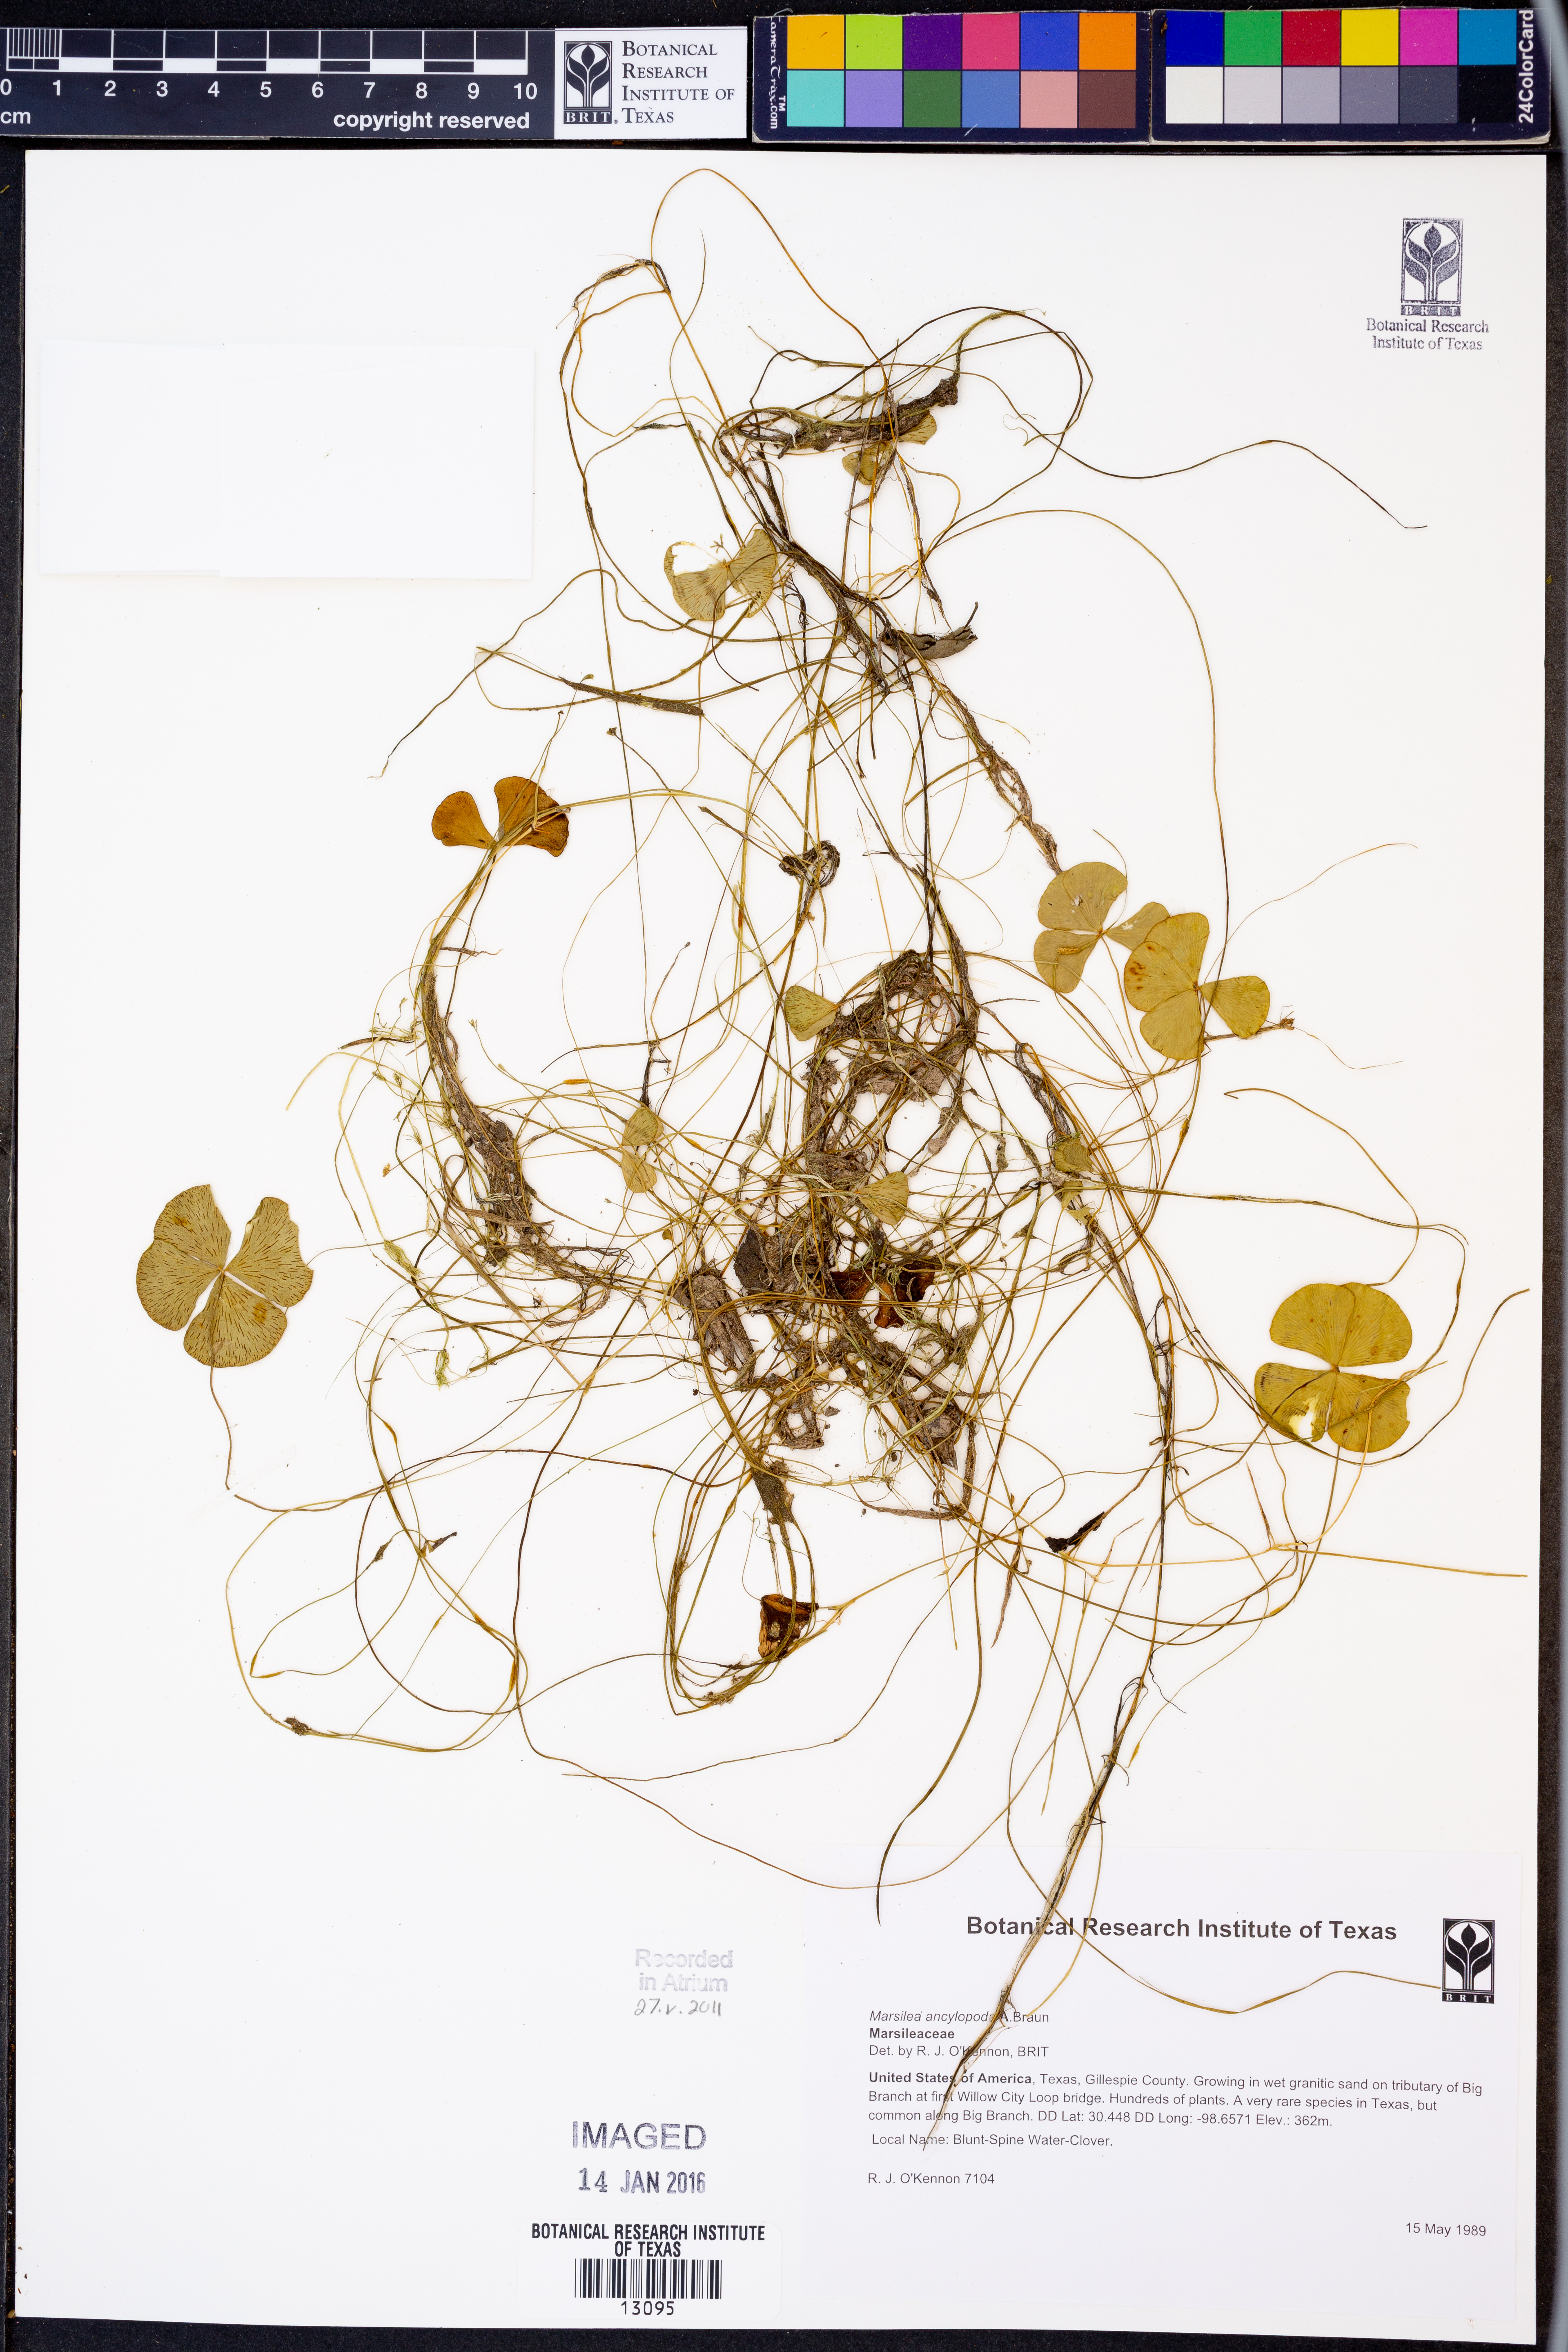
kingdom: Plantae
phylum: Tracheophyta
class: Polypodiopsida
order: Salviniales
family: Marsileaceae
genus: Marsilea
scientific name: Marsilea ancylopoda
